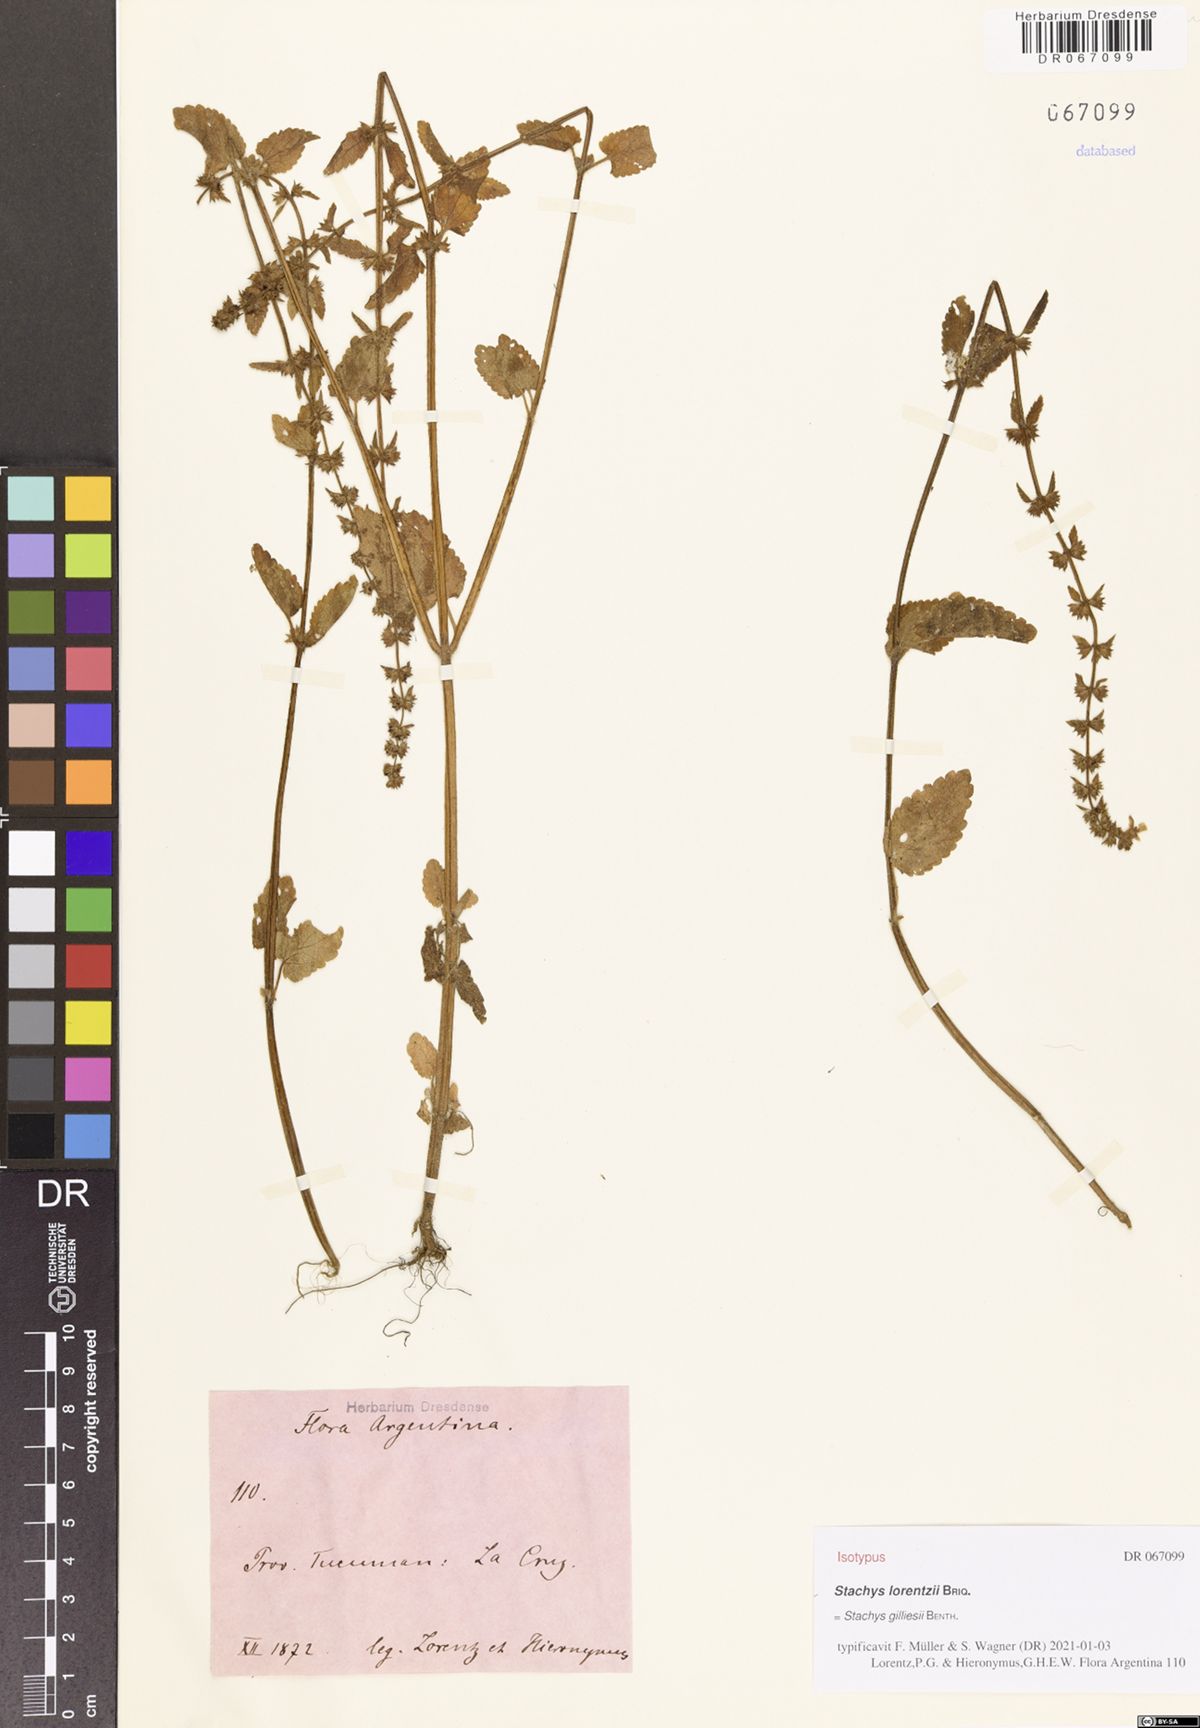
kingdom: Plantae
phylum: Tracheophyta
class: Magnoliopsida
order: Lamiales
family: Lamiaceae
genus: Stachys
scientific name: Stachys gilliesii
